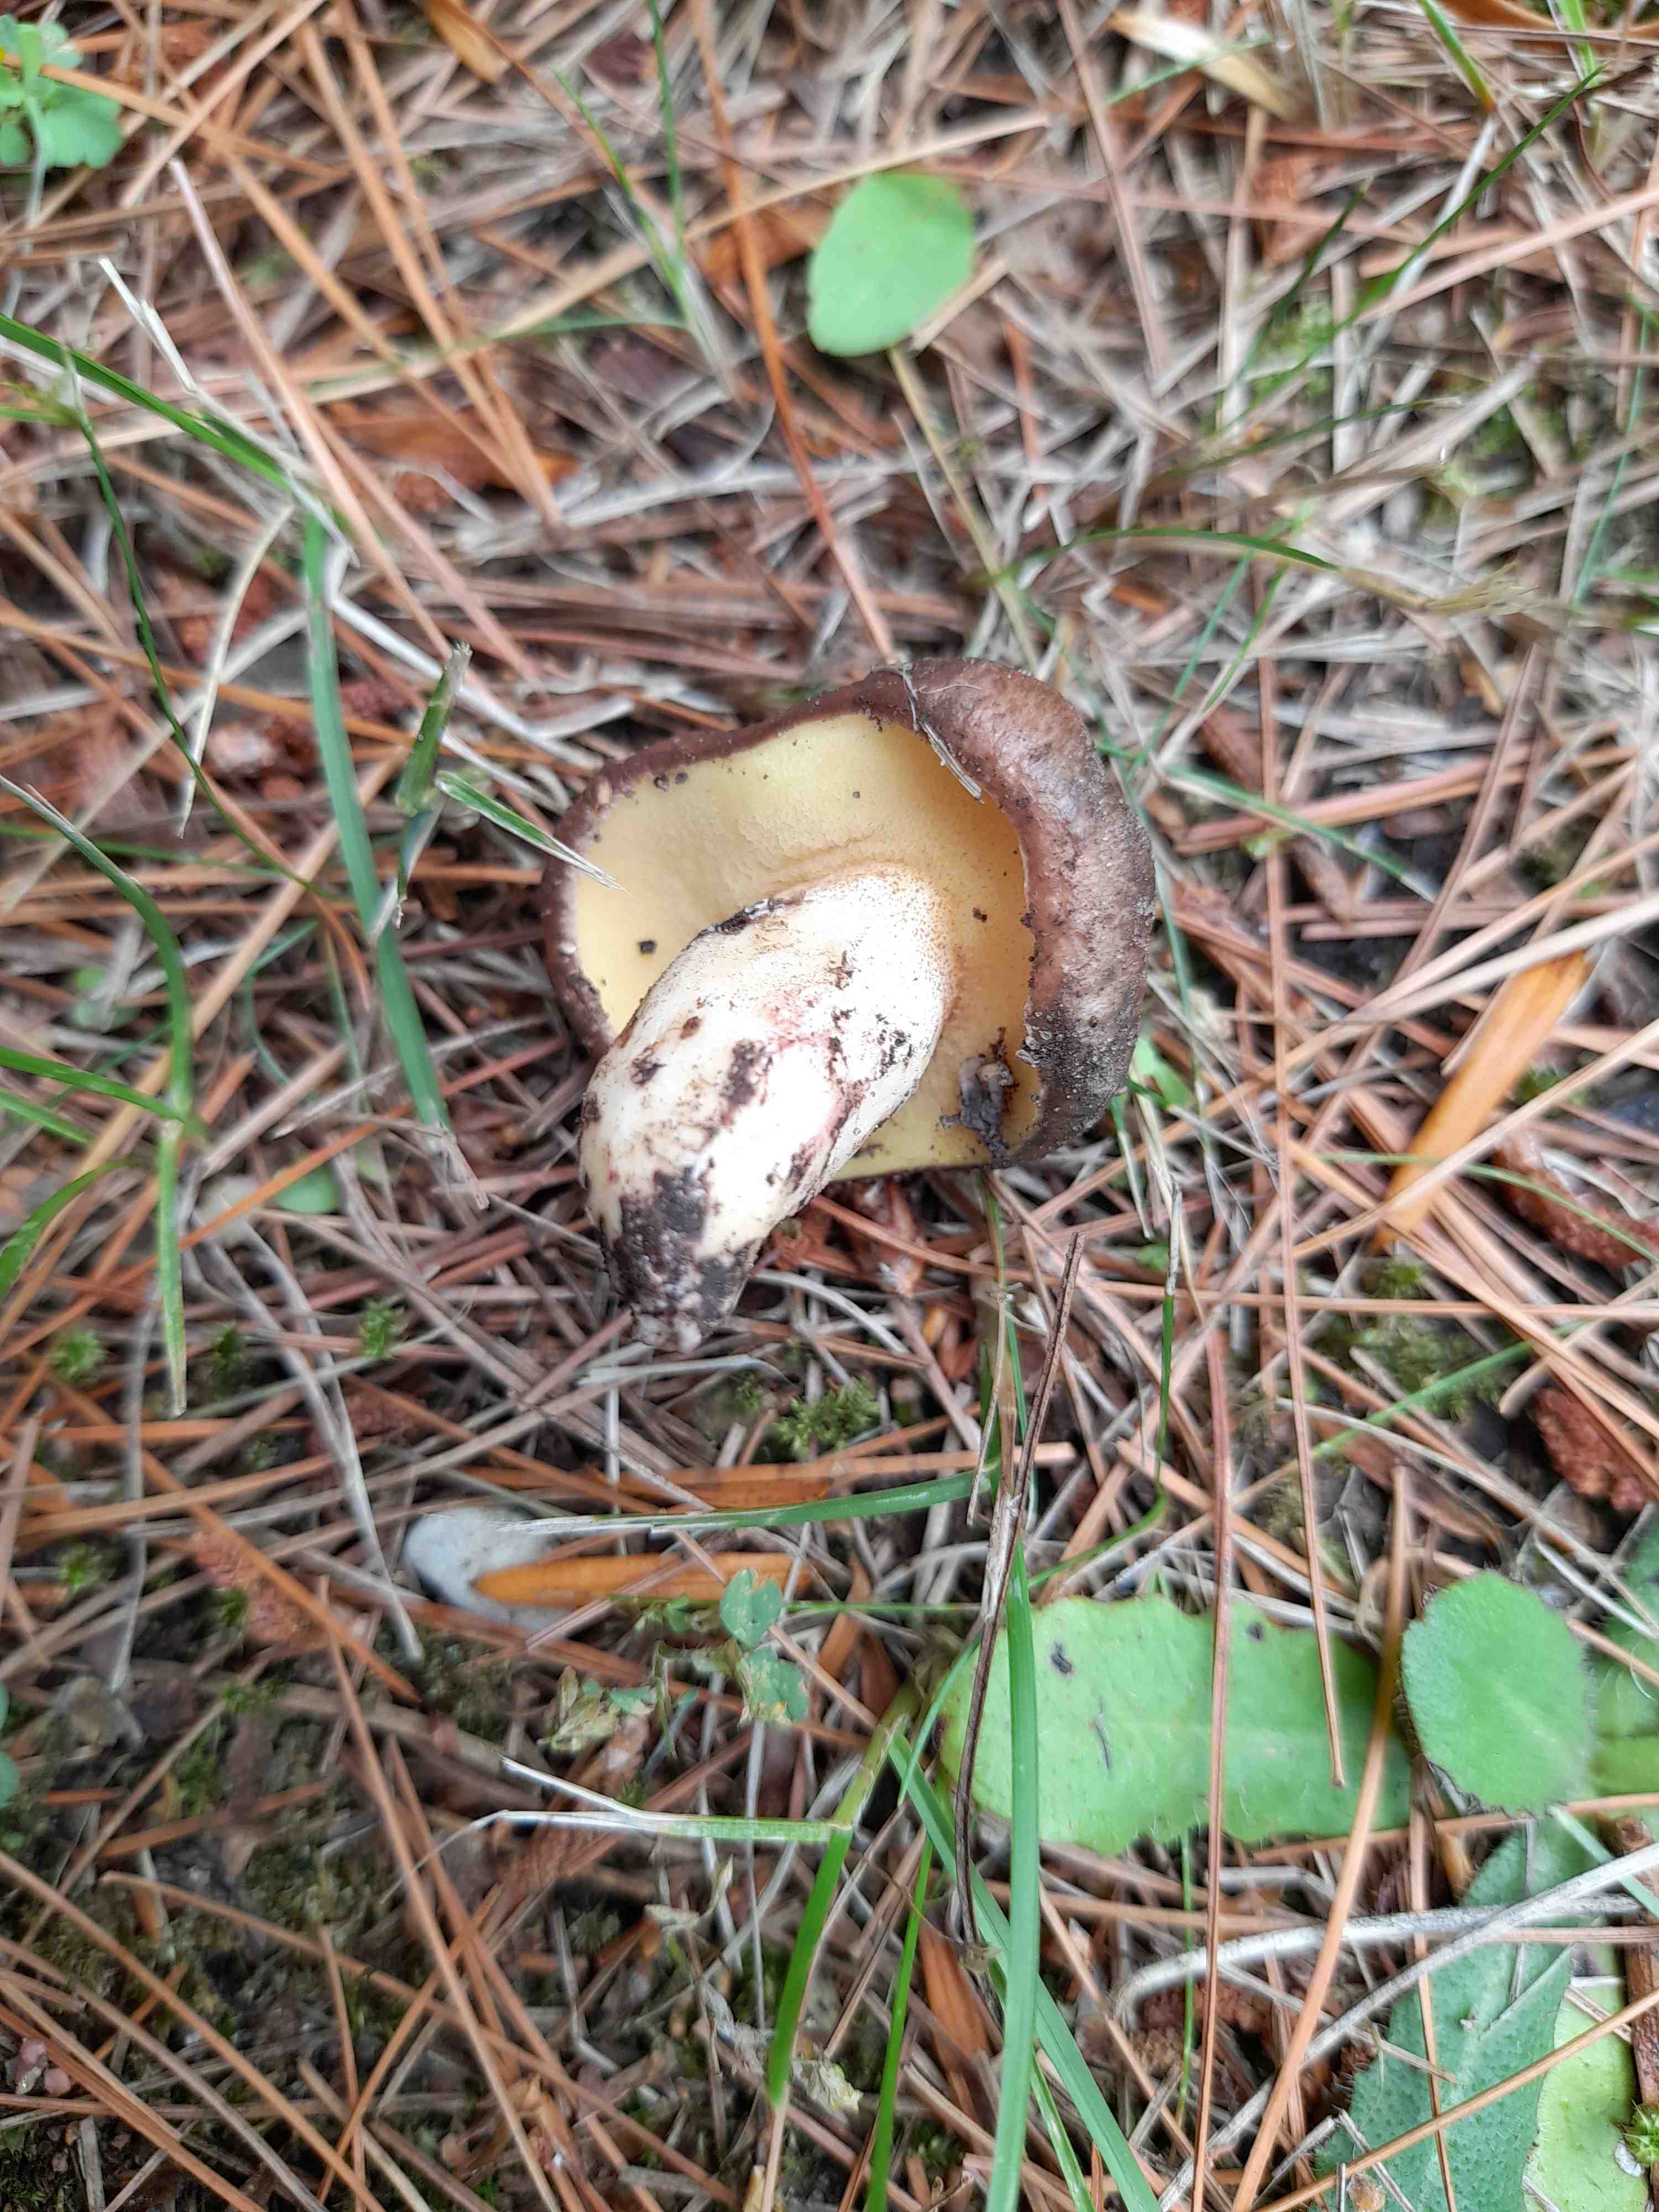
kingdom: Fungi
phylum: Basidiomycota
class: Agaricomycetes
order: Boletales
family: Suillaceae
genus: Suillus
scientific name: Suillus collinitus
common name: rosafodet slimrørhat
